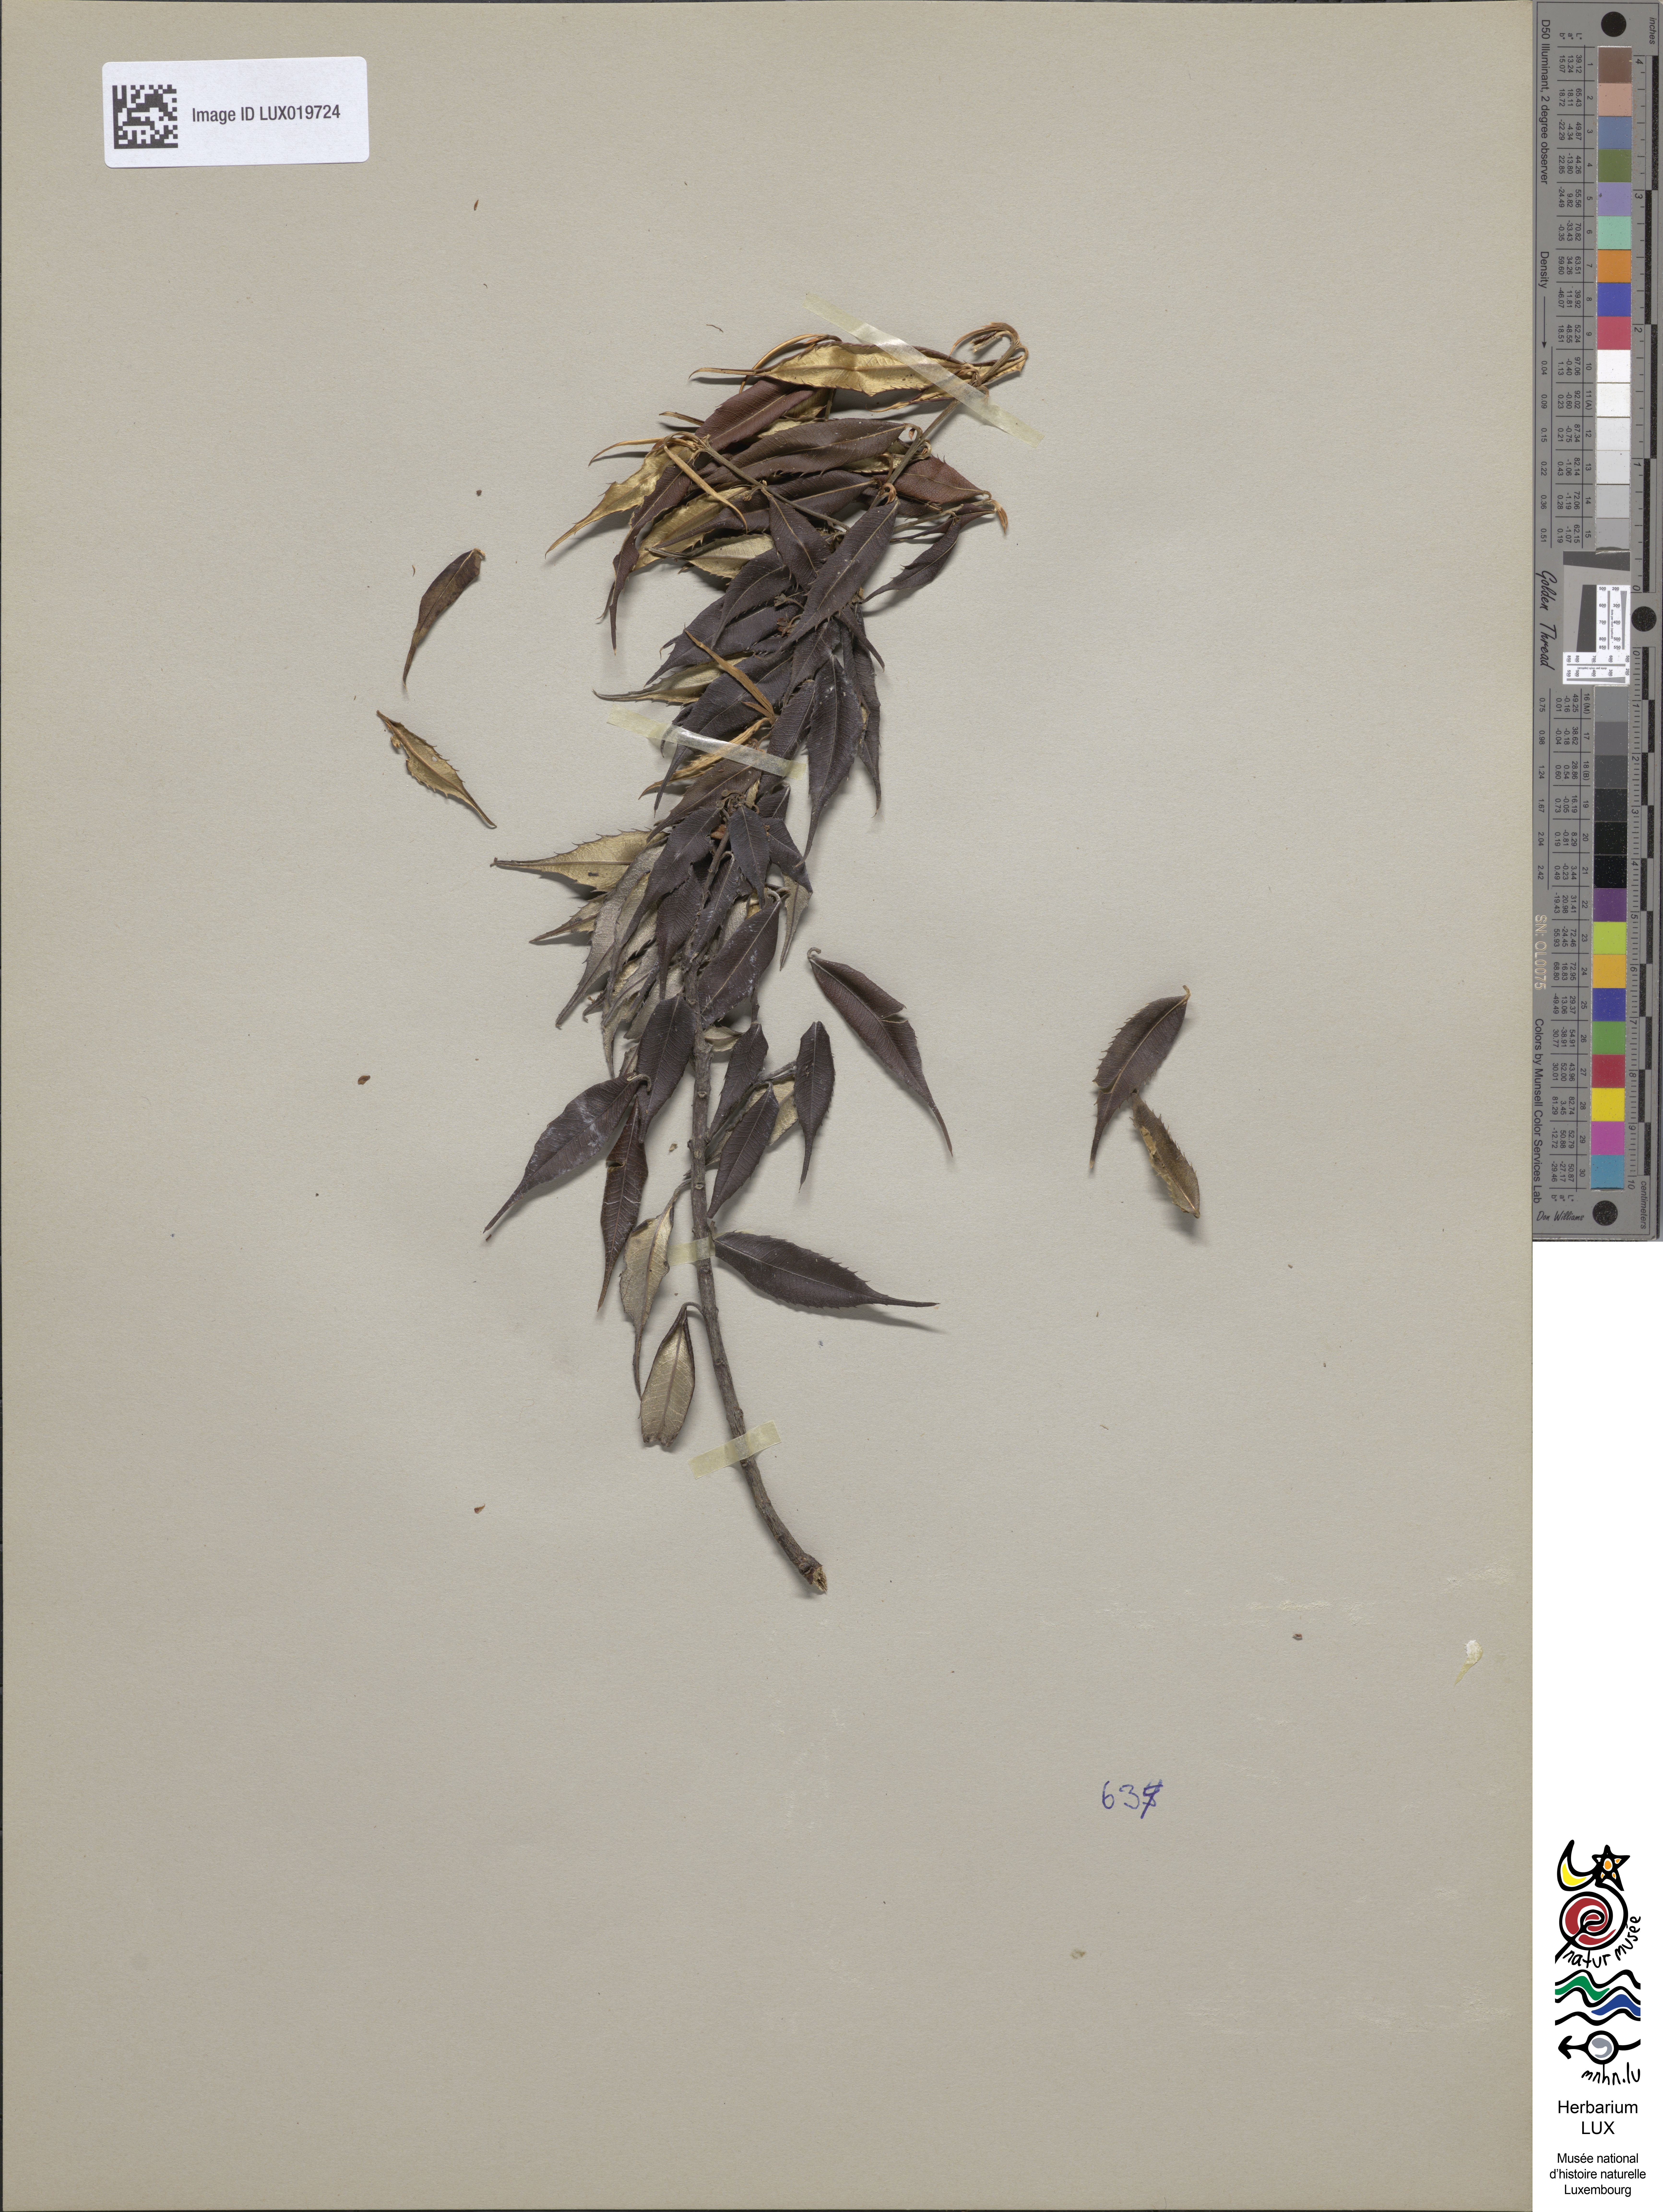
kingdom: Plantae
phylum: Tracheophyta
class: Magnoliopsida
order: Oxalidales
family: Elaeocarpaceae
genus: Sericolea
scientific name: Sericolea calophylla
